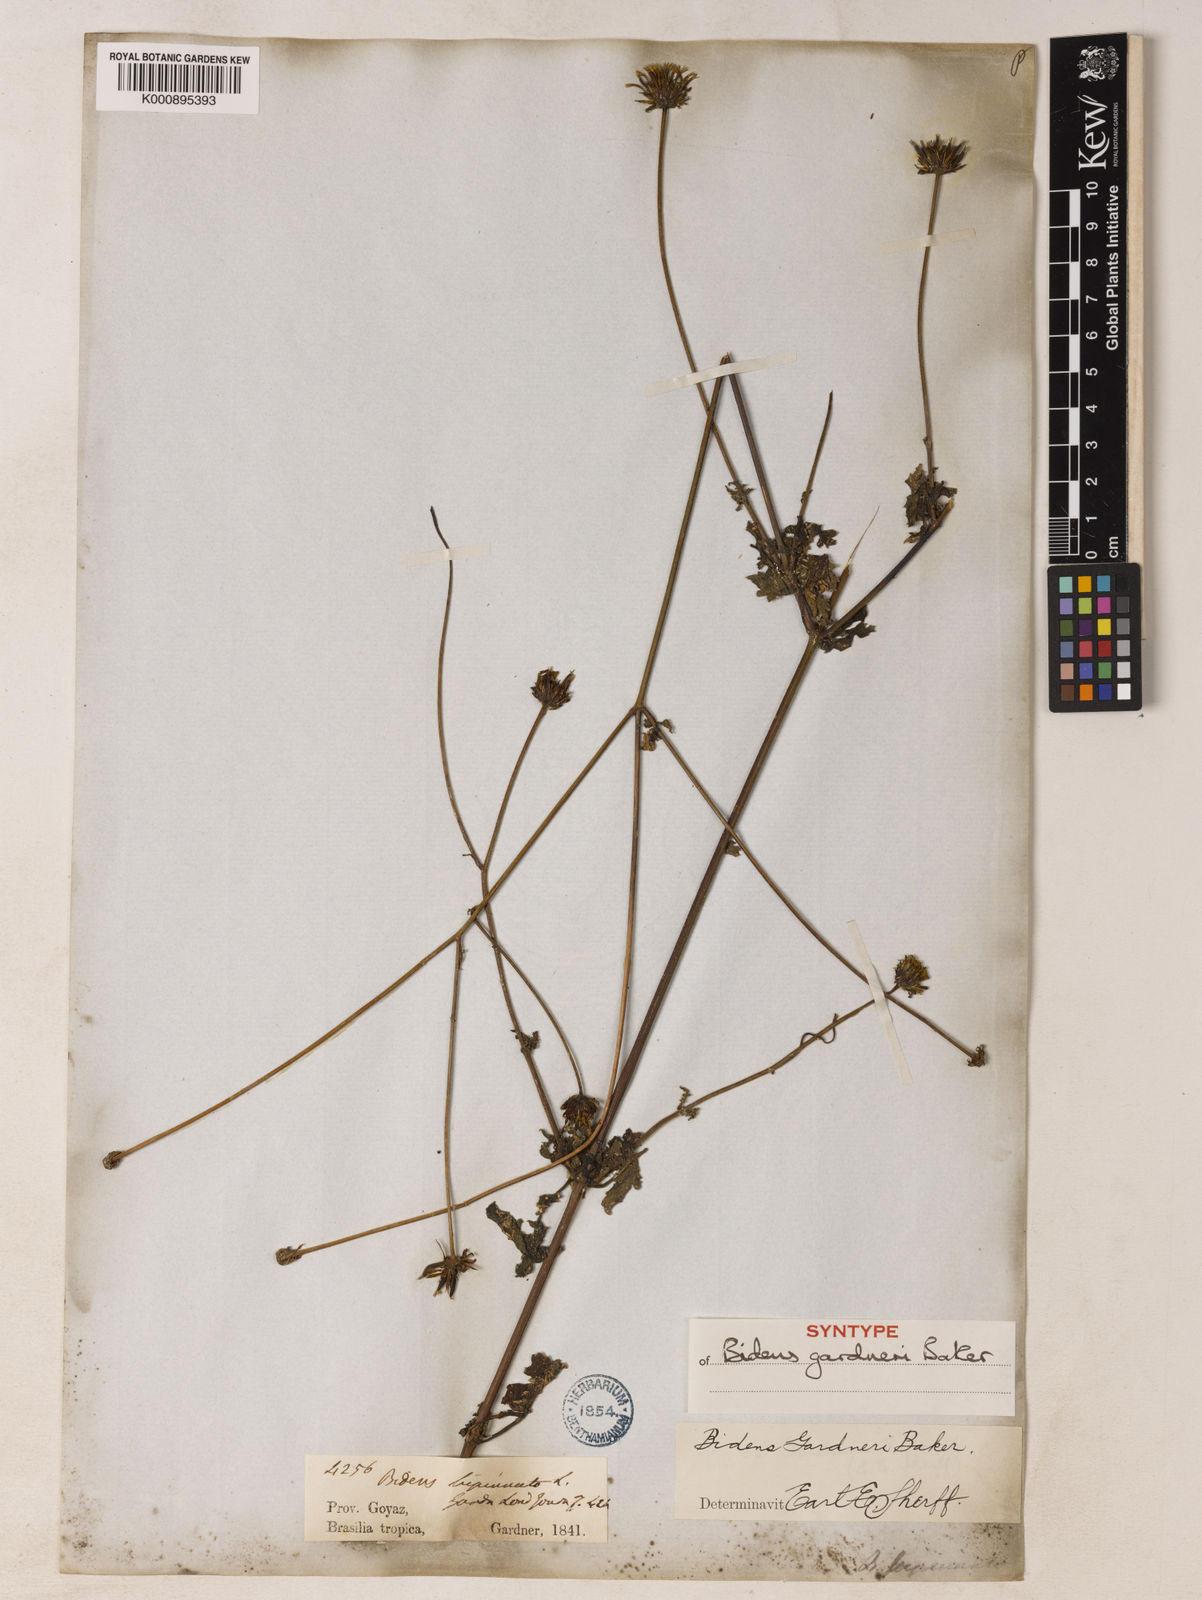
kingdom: Plantae
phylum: Tracheophyta
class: Magnoliopsida
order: Asterales
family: Asteraceae
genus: Bidens
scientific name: Bidens gardneri
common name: Ridge beggartick
